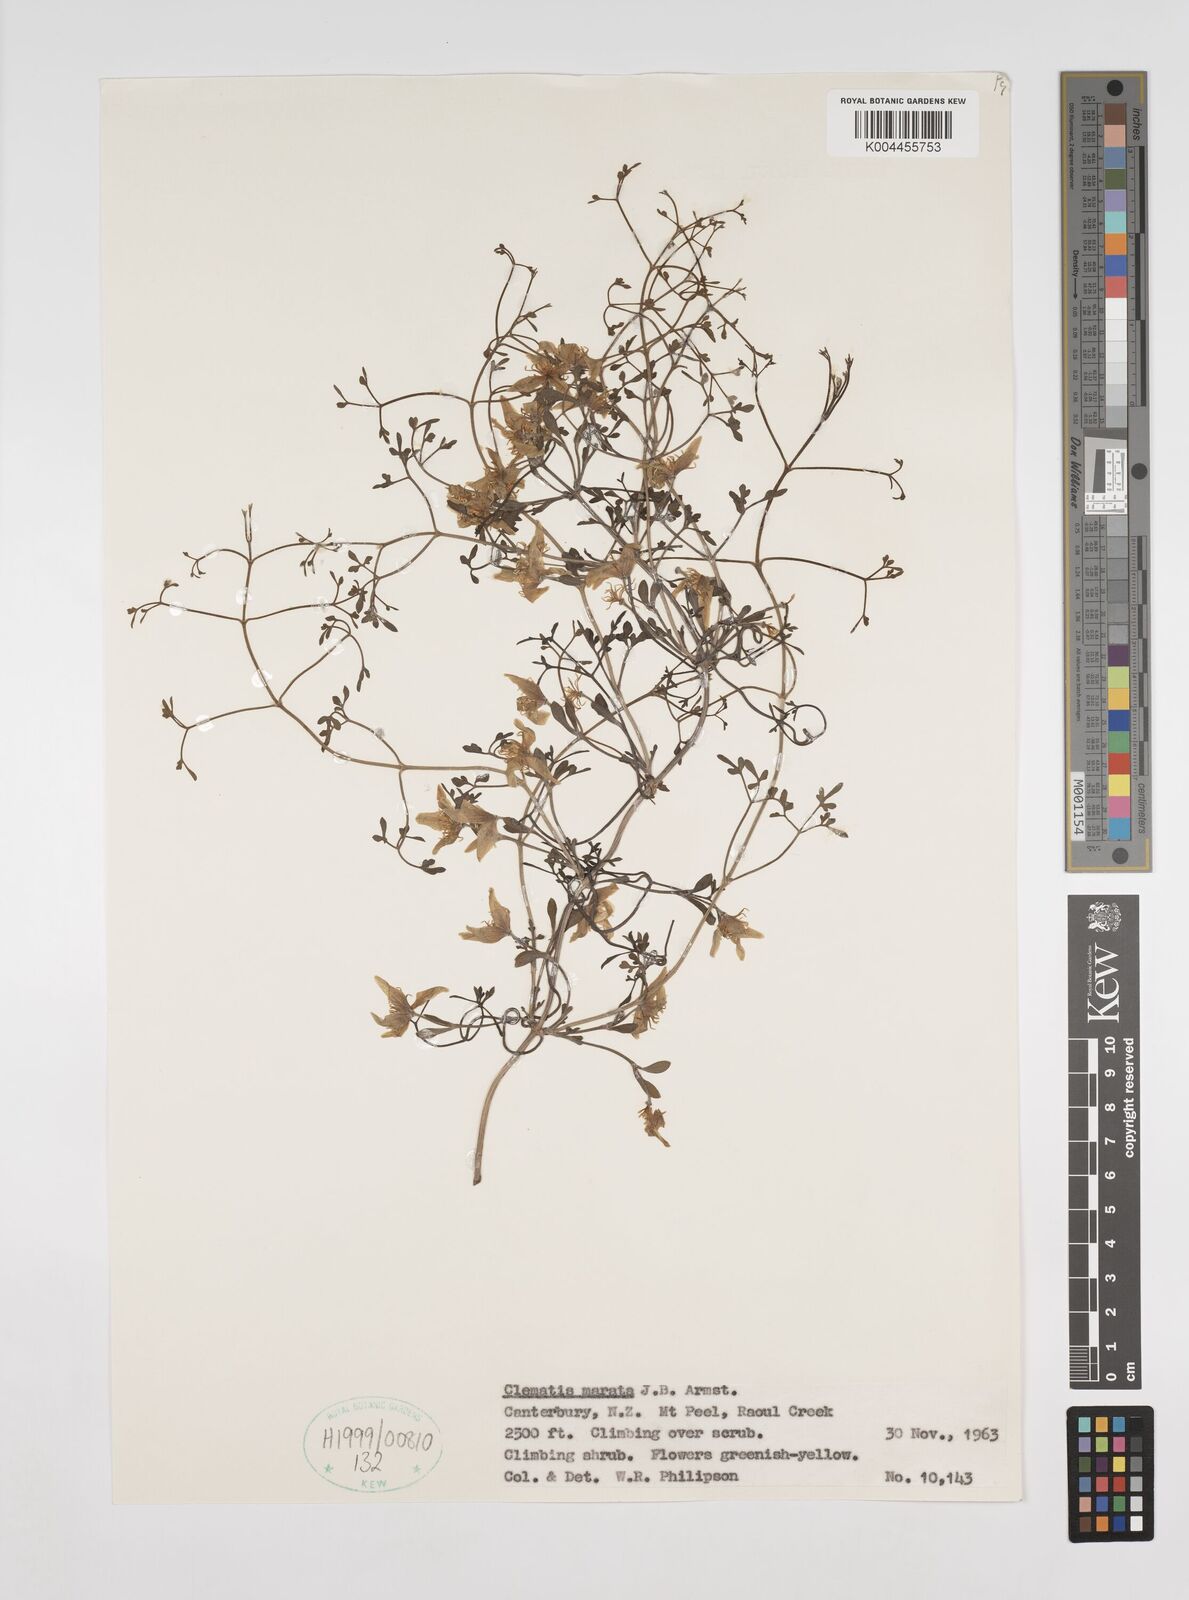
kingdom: Plantae
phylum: Tracheophyta
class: Magnoliopsida
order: Ranunculales
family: Ranunculaceae
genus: Clematis
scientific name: Clematis marata
